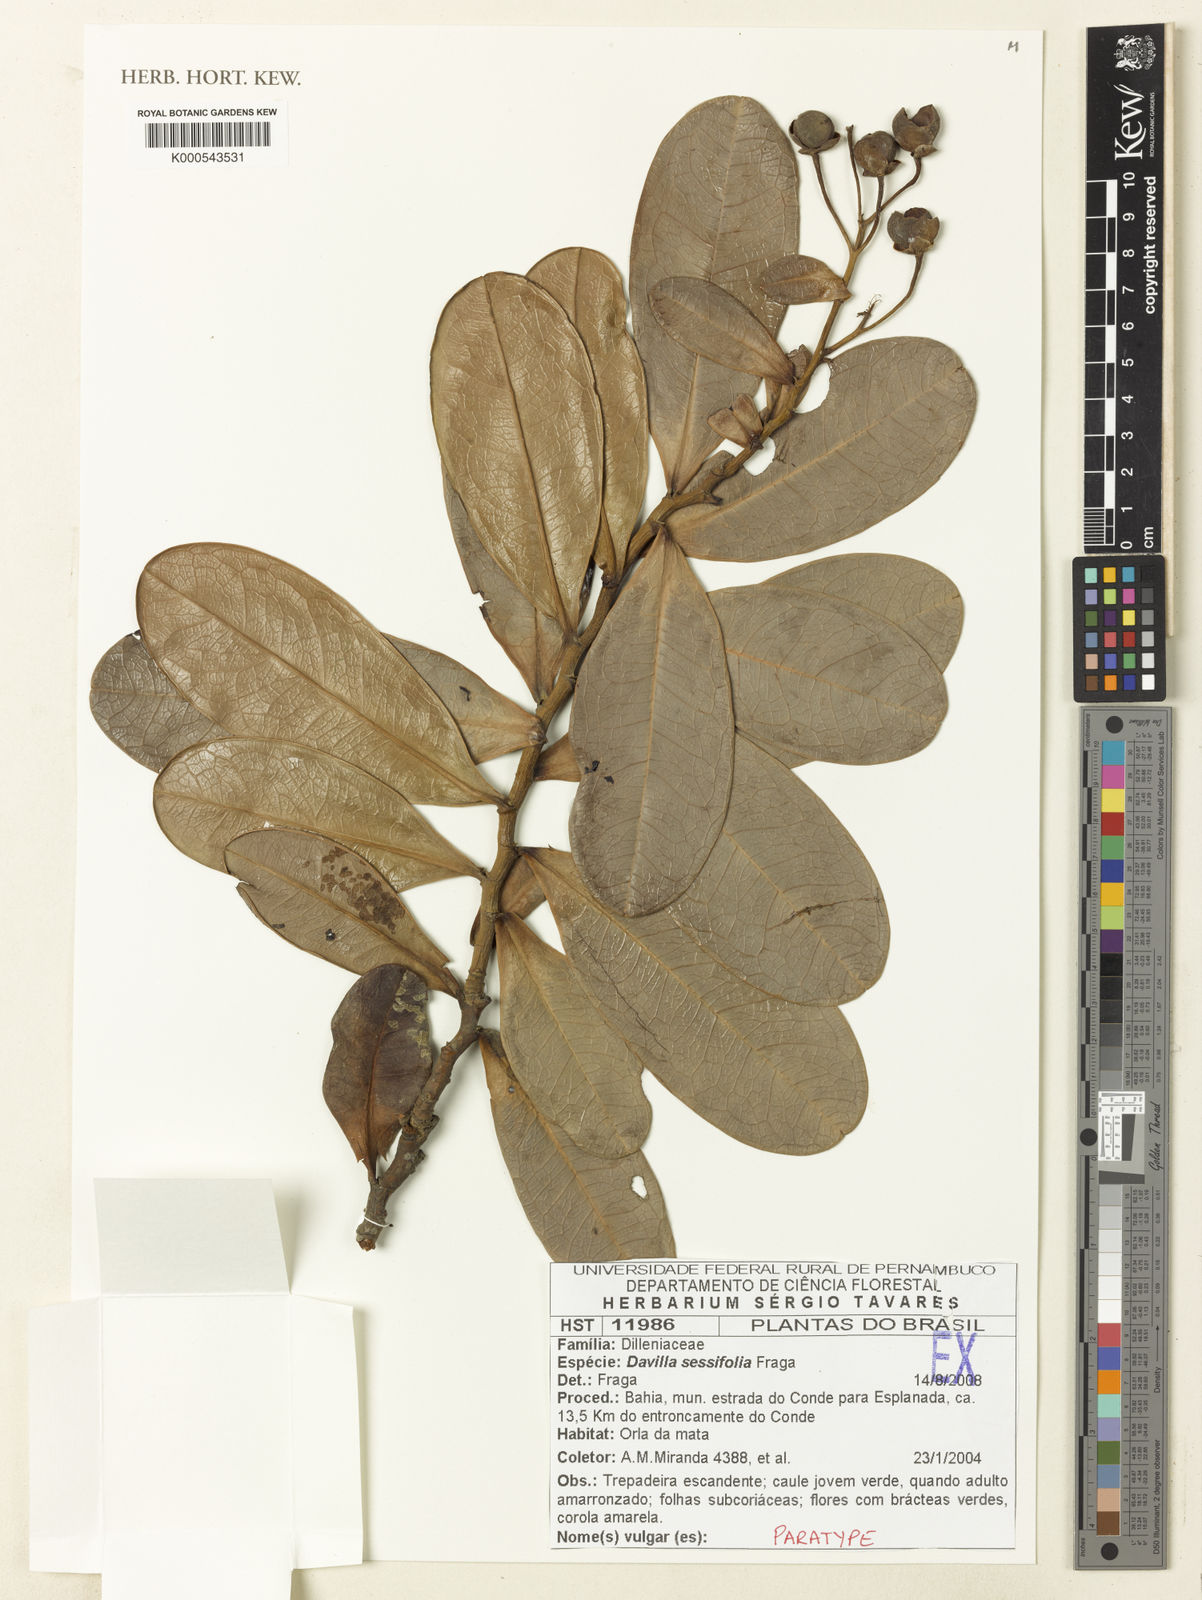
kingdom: Plantae
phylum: Tracheophyta
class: Magnoliopsida
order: Dilleniales
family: Dilleniaceae
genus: Davilla
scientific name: Davilla sessilifolia
